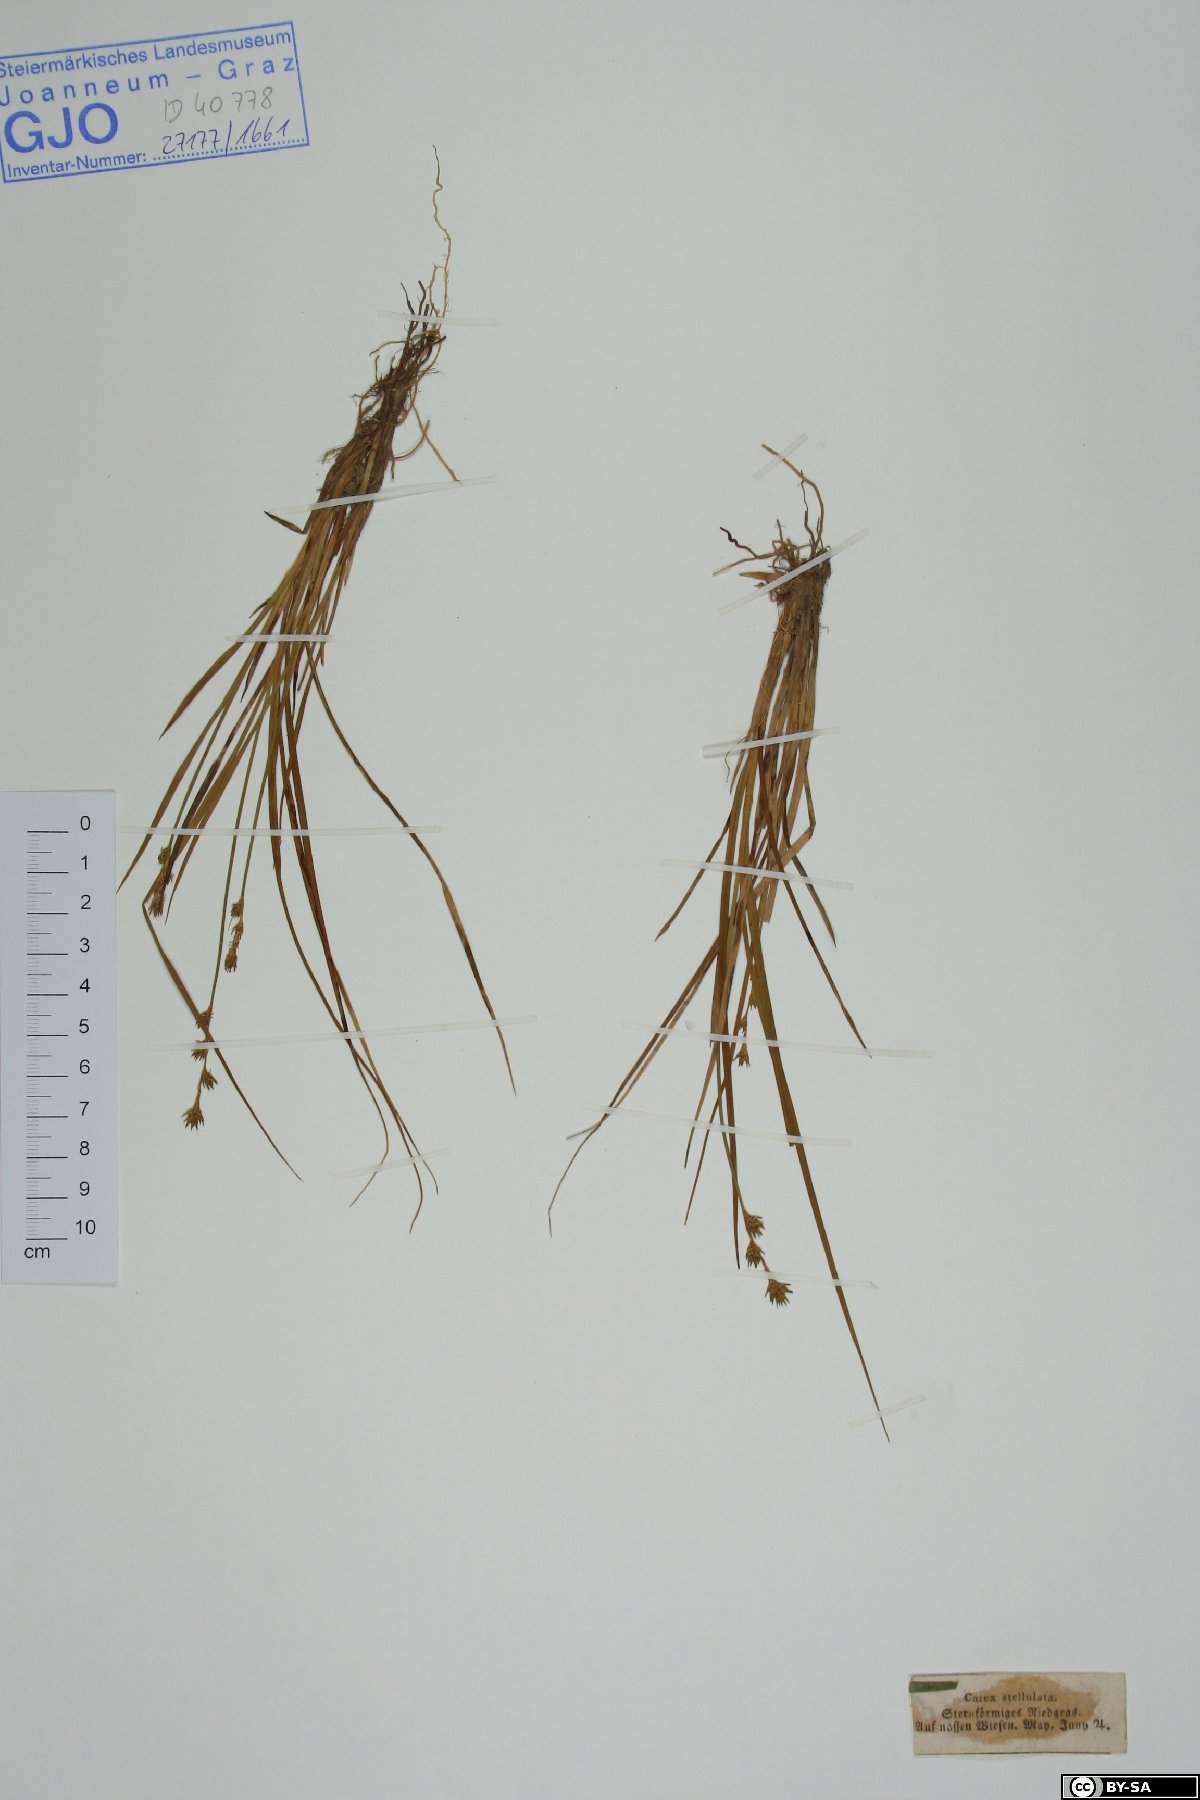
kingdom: Plantae
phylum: Tracheophyta
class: Liliopsida
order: Poales
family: Cyperaceae
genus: Carex
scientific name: Carex echinata
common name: Star sedge
